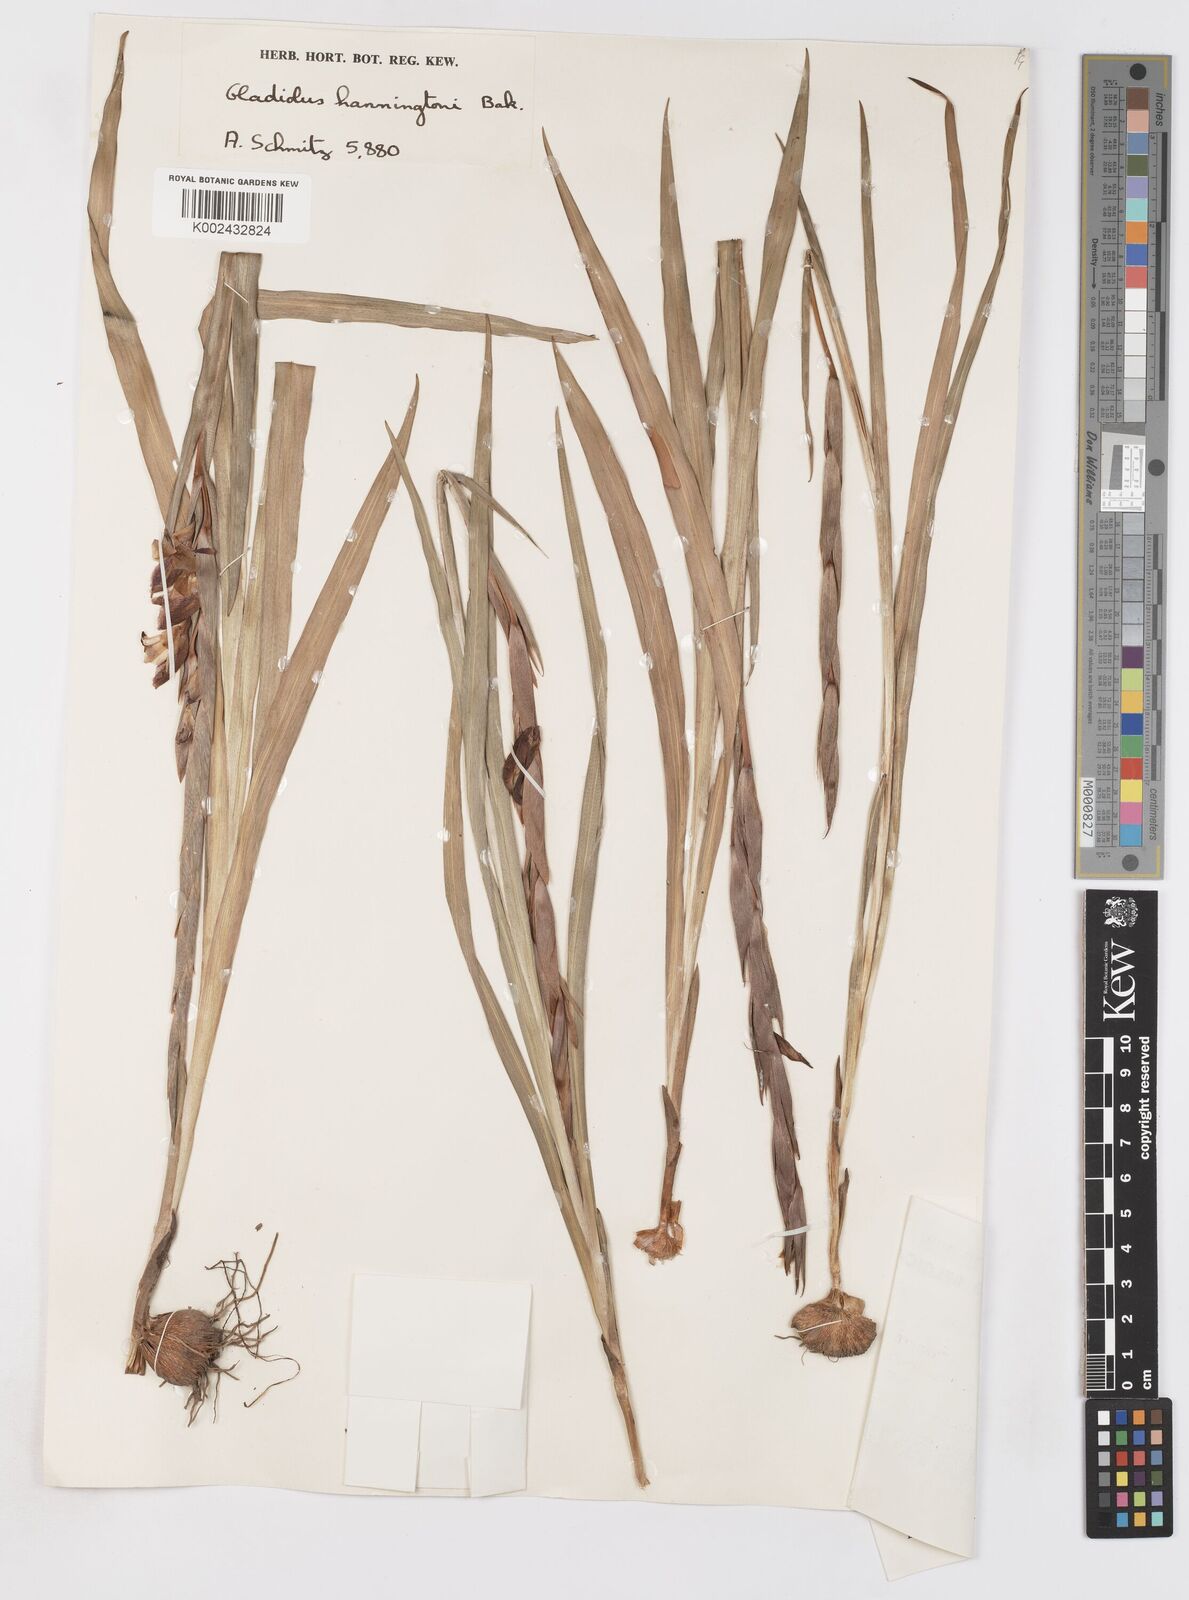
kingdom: Plantae
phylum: Tracheophyta
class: Liliopsida
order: Asparagales
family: Iridaceae
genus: Gladiolus
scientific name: Gladiolus gregarius
